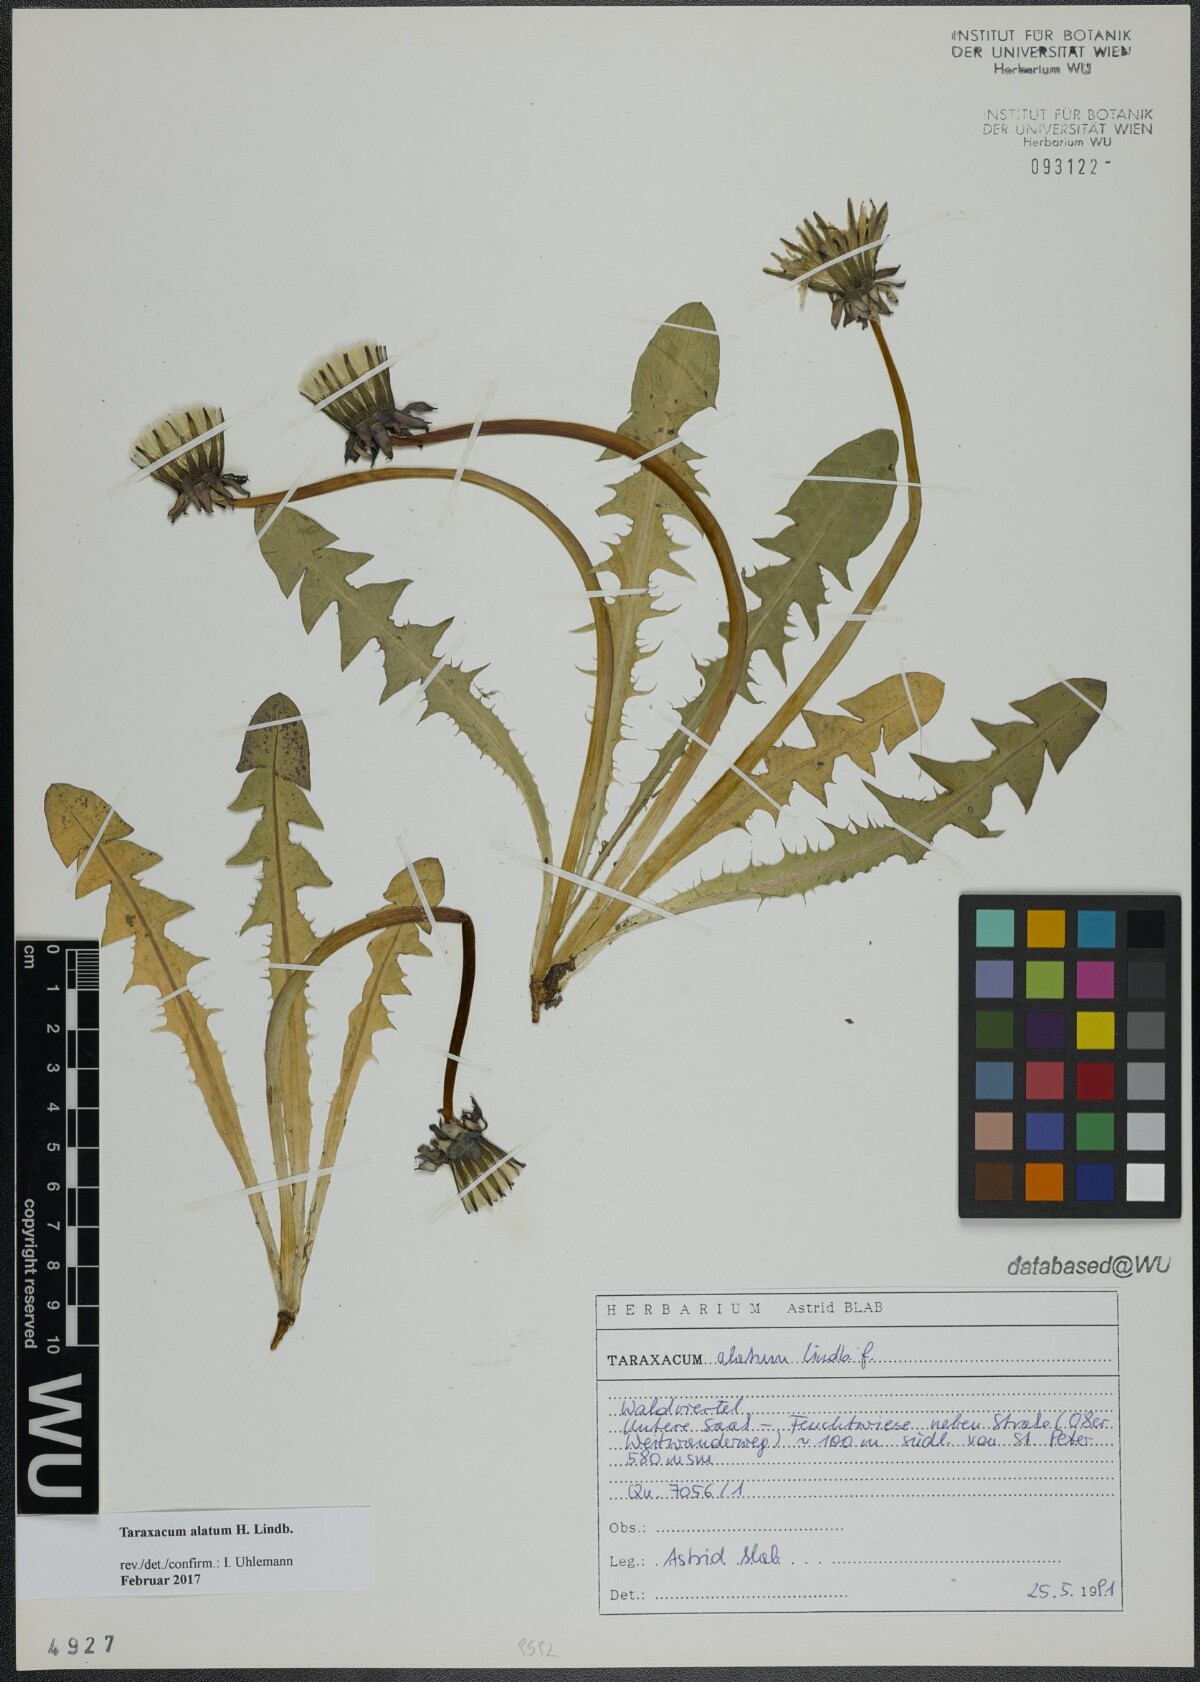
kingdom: Plantae
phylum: Tracheophyta
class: Magnoliopsida
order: Asterales
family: Asteraceae
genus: Taraxacum
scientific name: Taraxacum alatum
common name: Green dandelion
